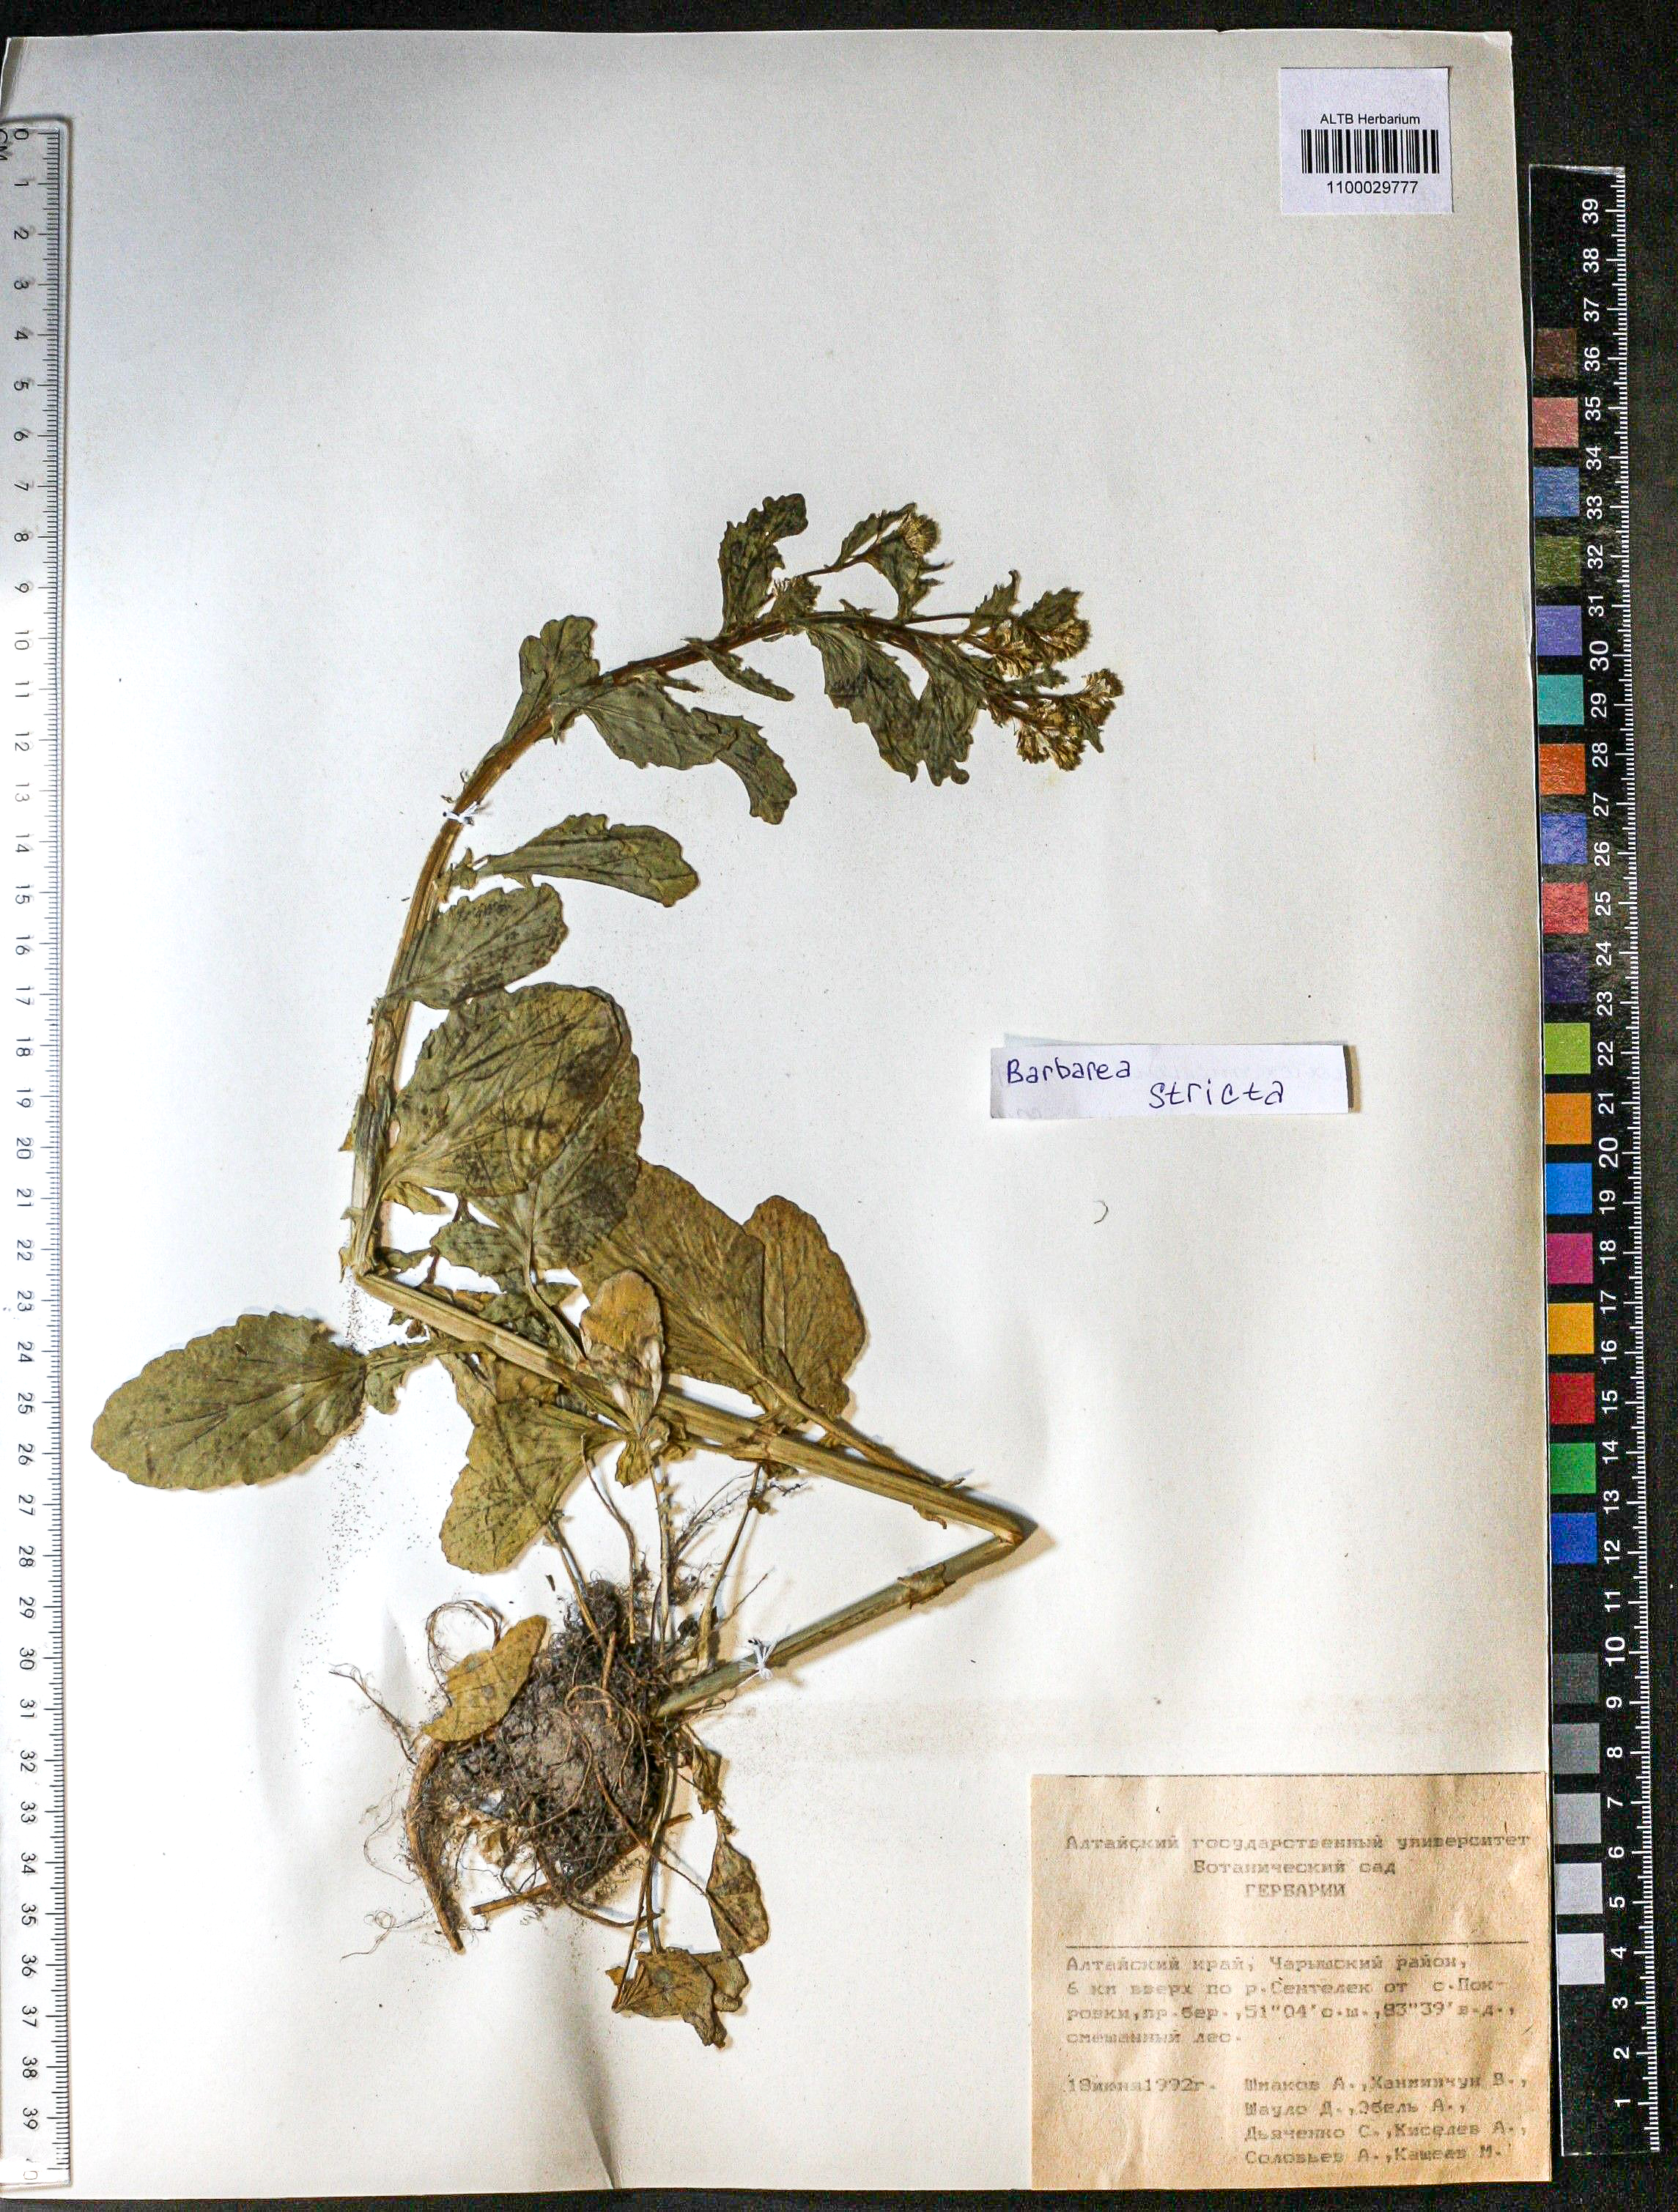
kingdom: Plantae
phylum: Tracheophyta
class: Magnoliopsida
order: Brassicales
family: Brassicaceae
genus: Barbarea
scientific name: Barbarea vulgaris
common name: Cressy-greens
